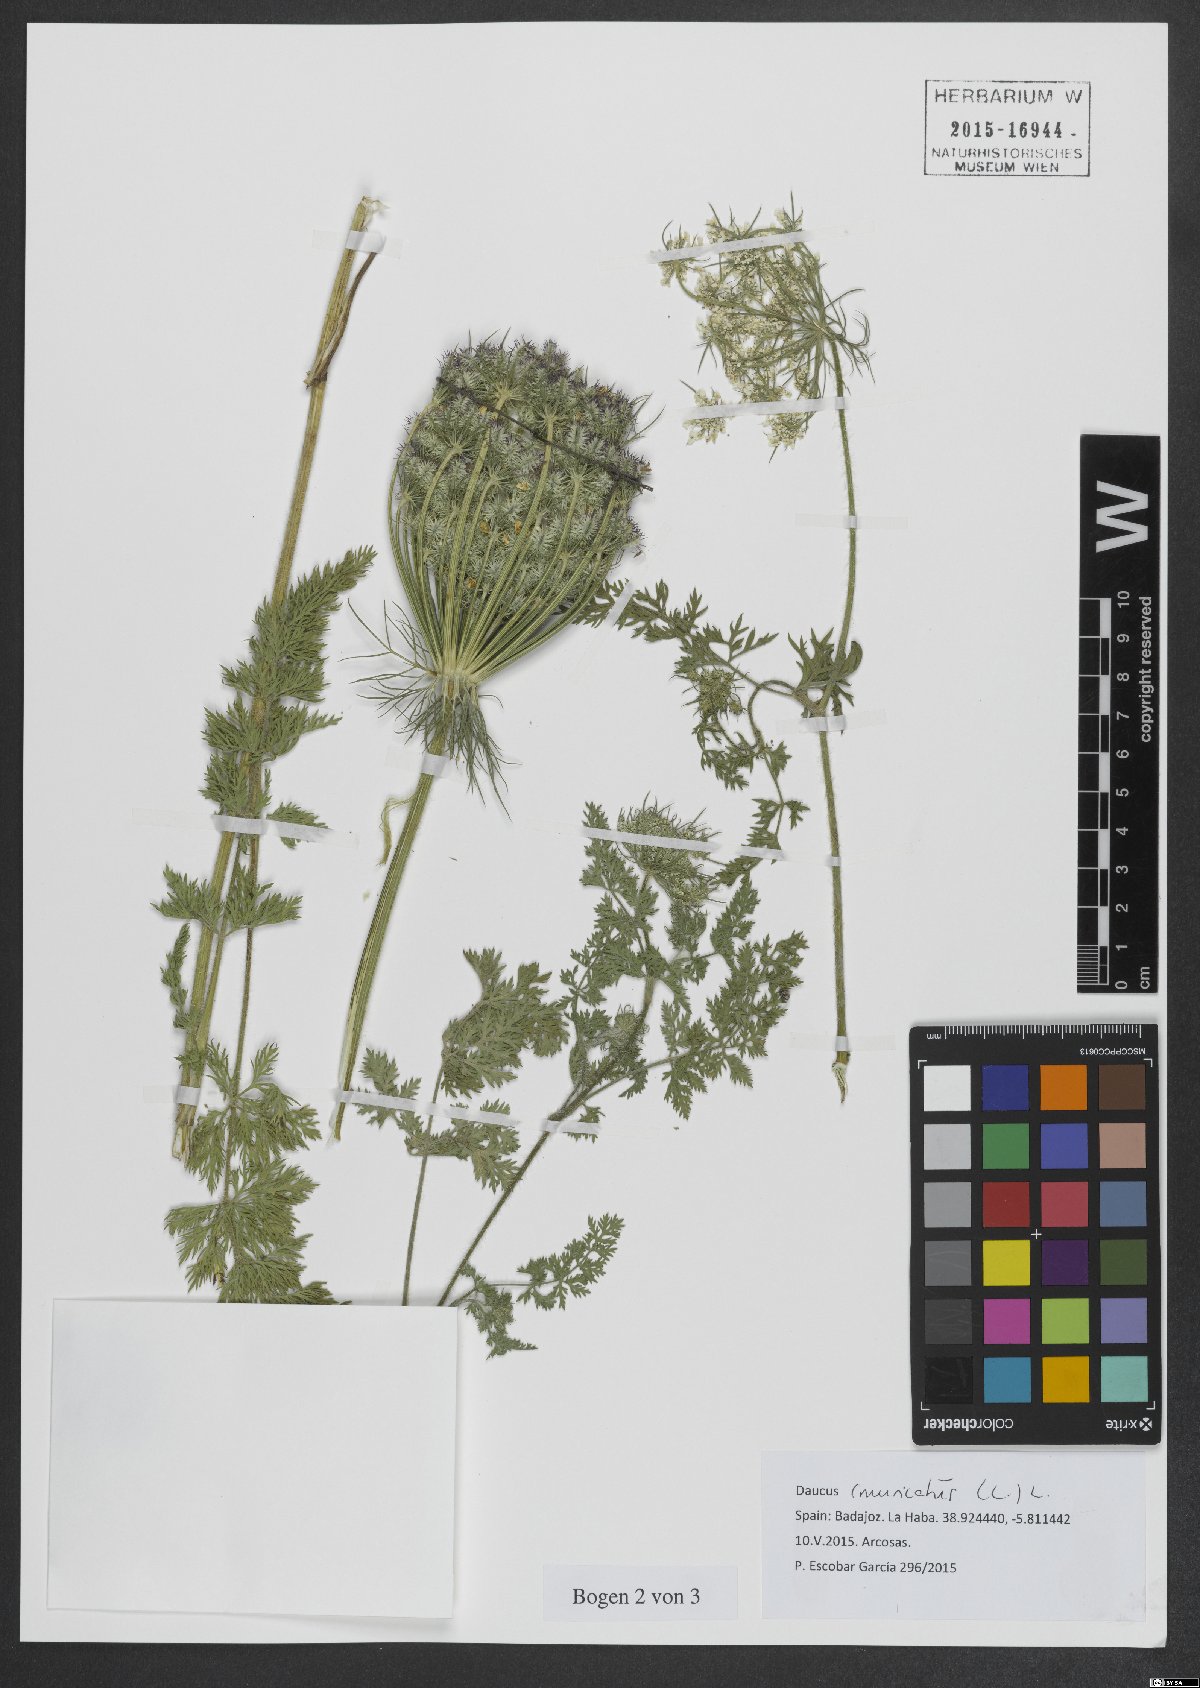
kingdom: Plantae
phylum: Tracheophyta
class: Magnoliopsida
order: Apiales
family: Apiaceae
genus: Daucus
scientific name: Daucus muricatus
